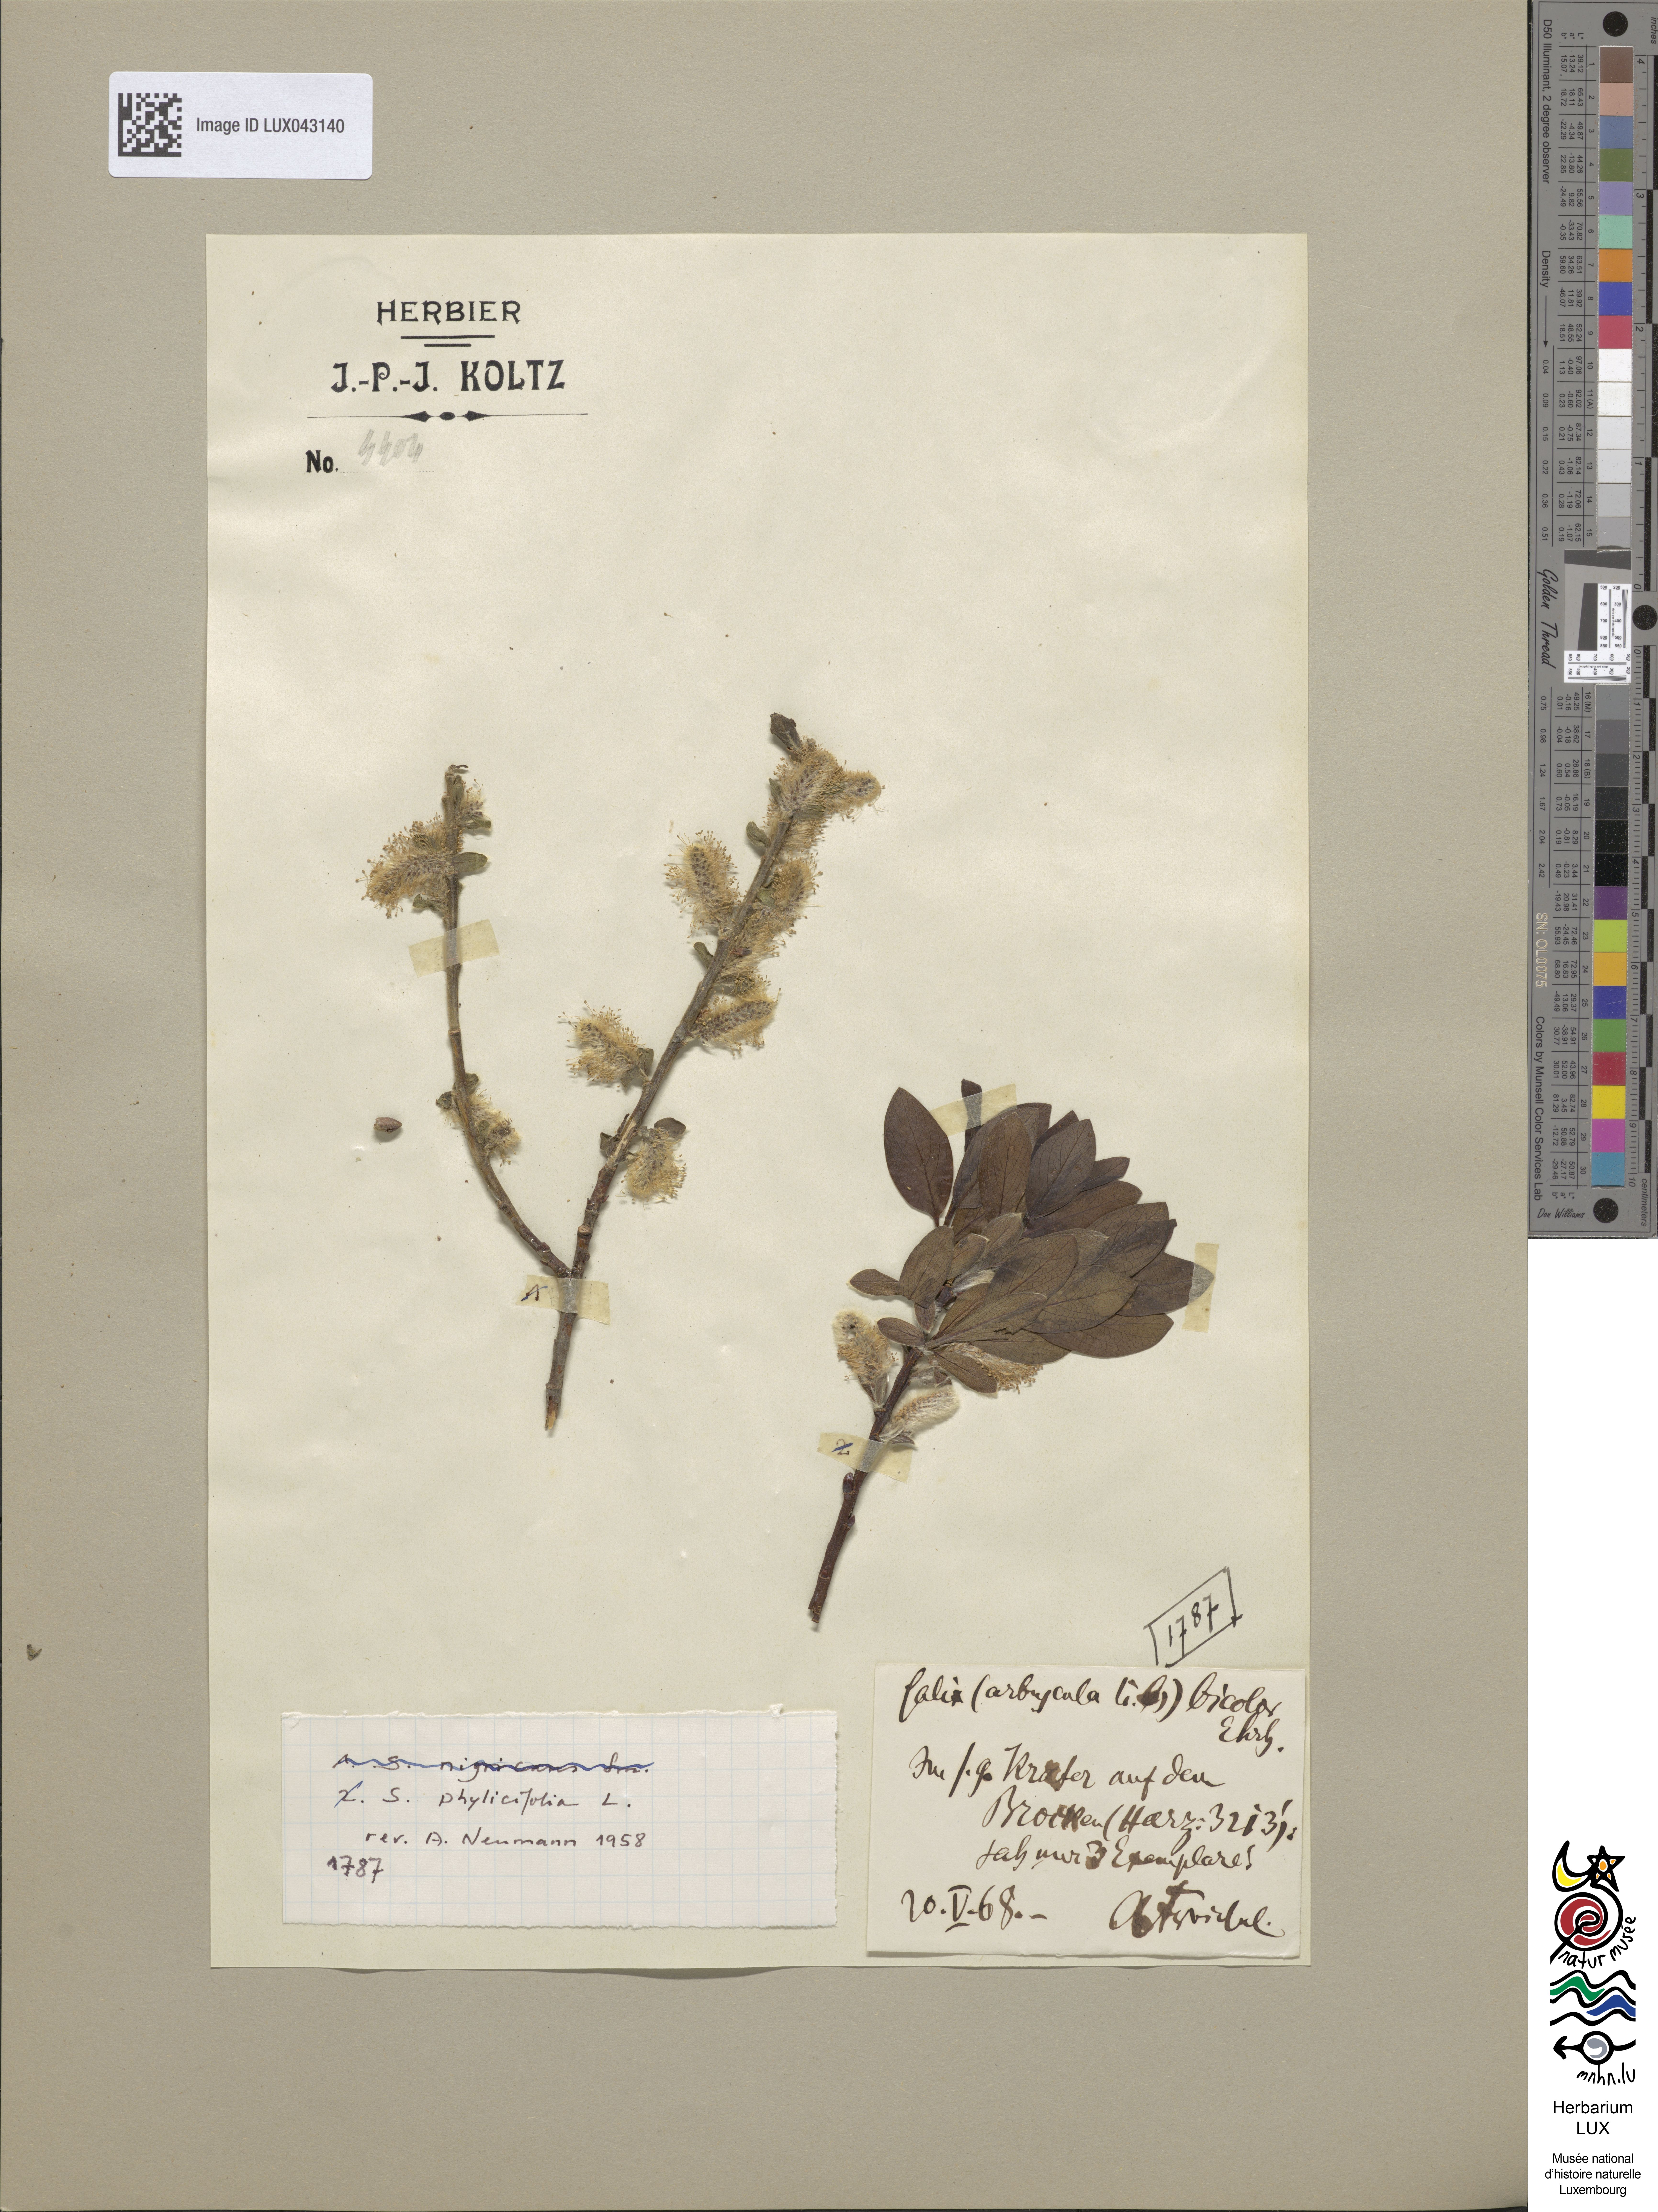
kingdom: Plantae
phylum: Tracheophyta
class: Magnoliopsida
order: Malpighiales
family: Salicaceae
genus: Salix
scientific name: Salix bicolor
